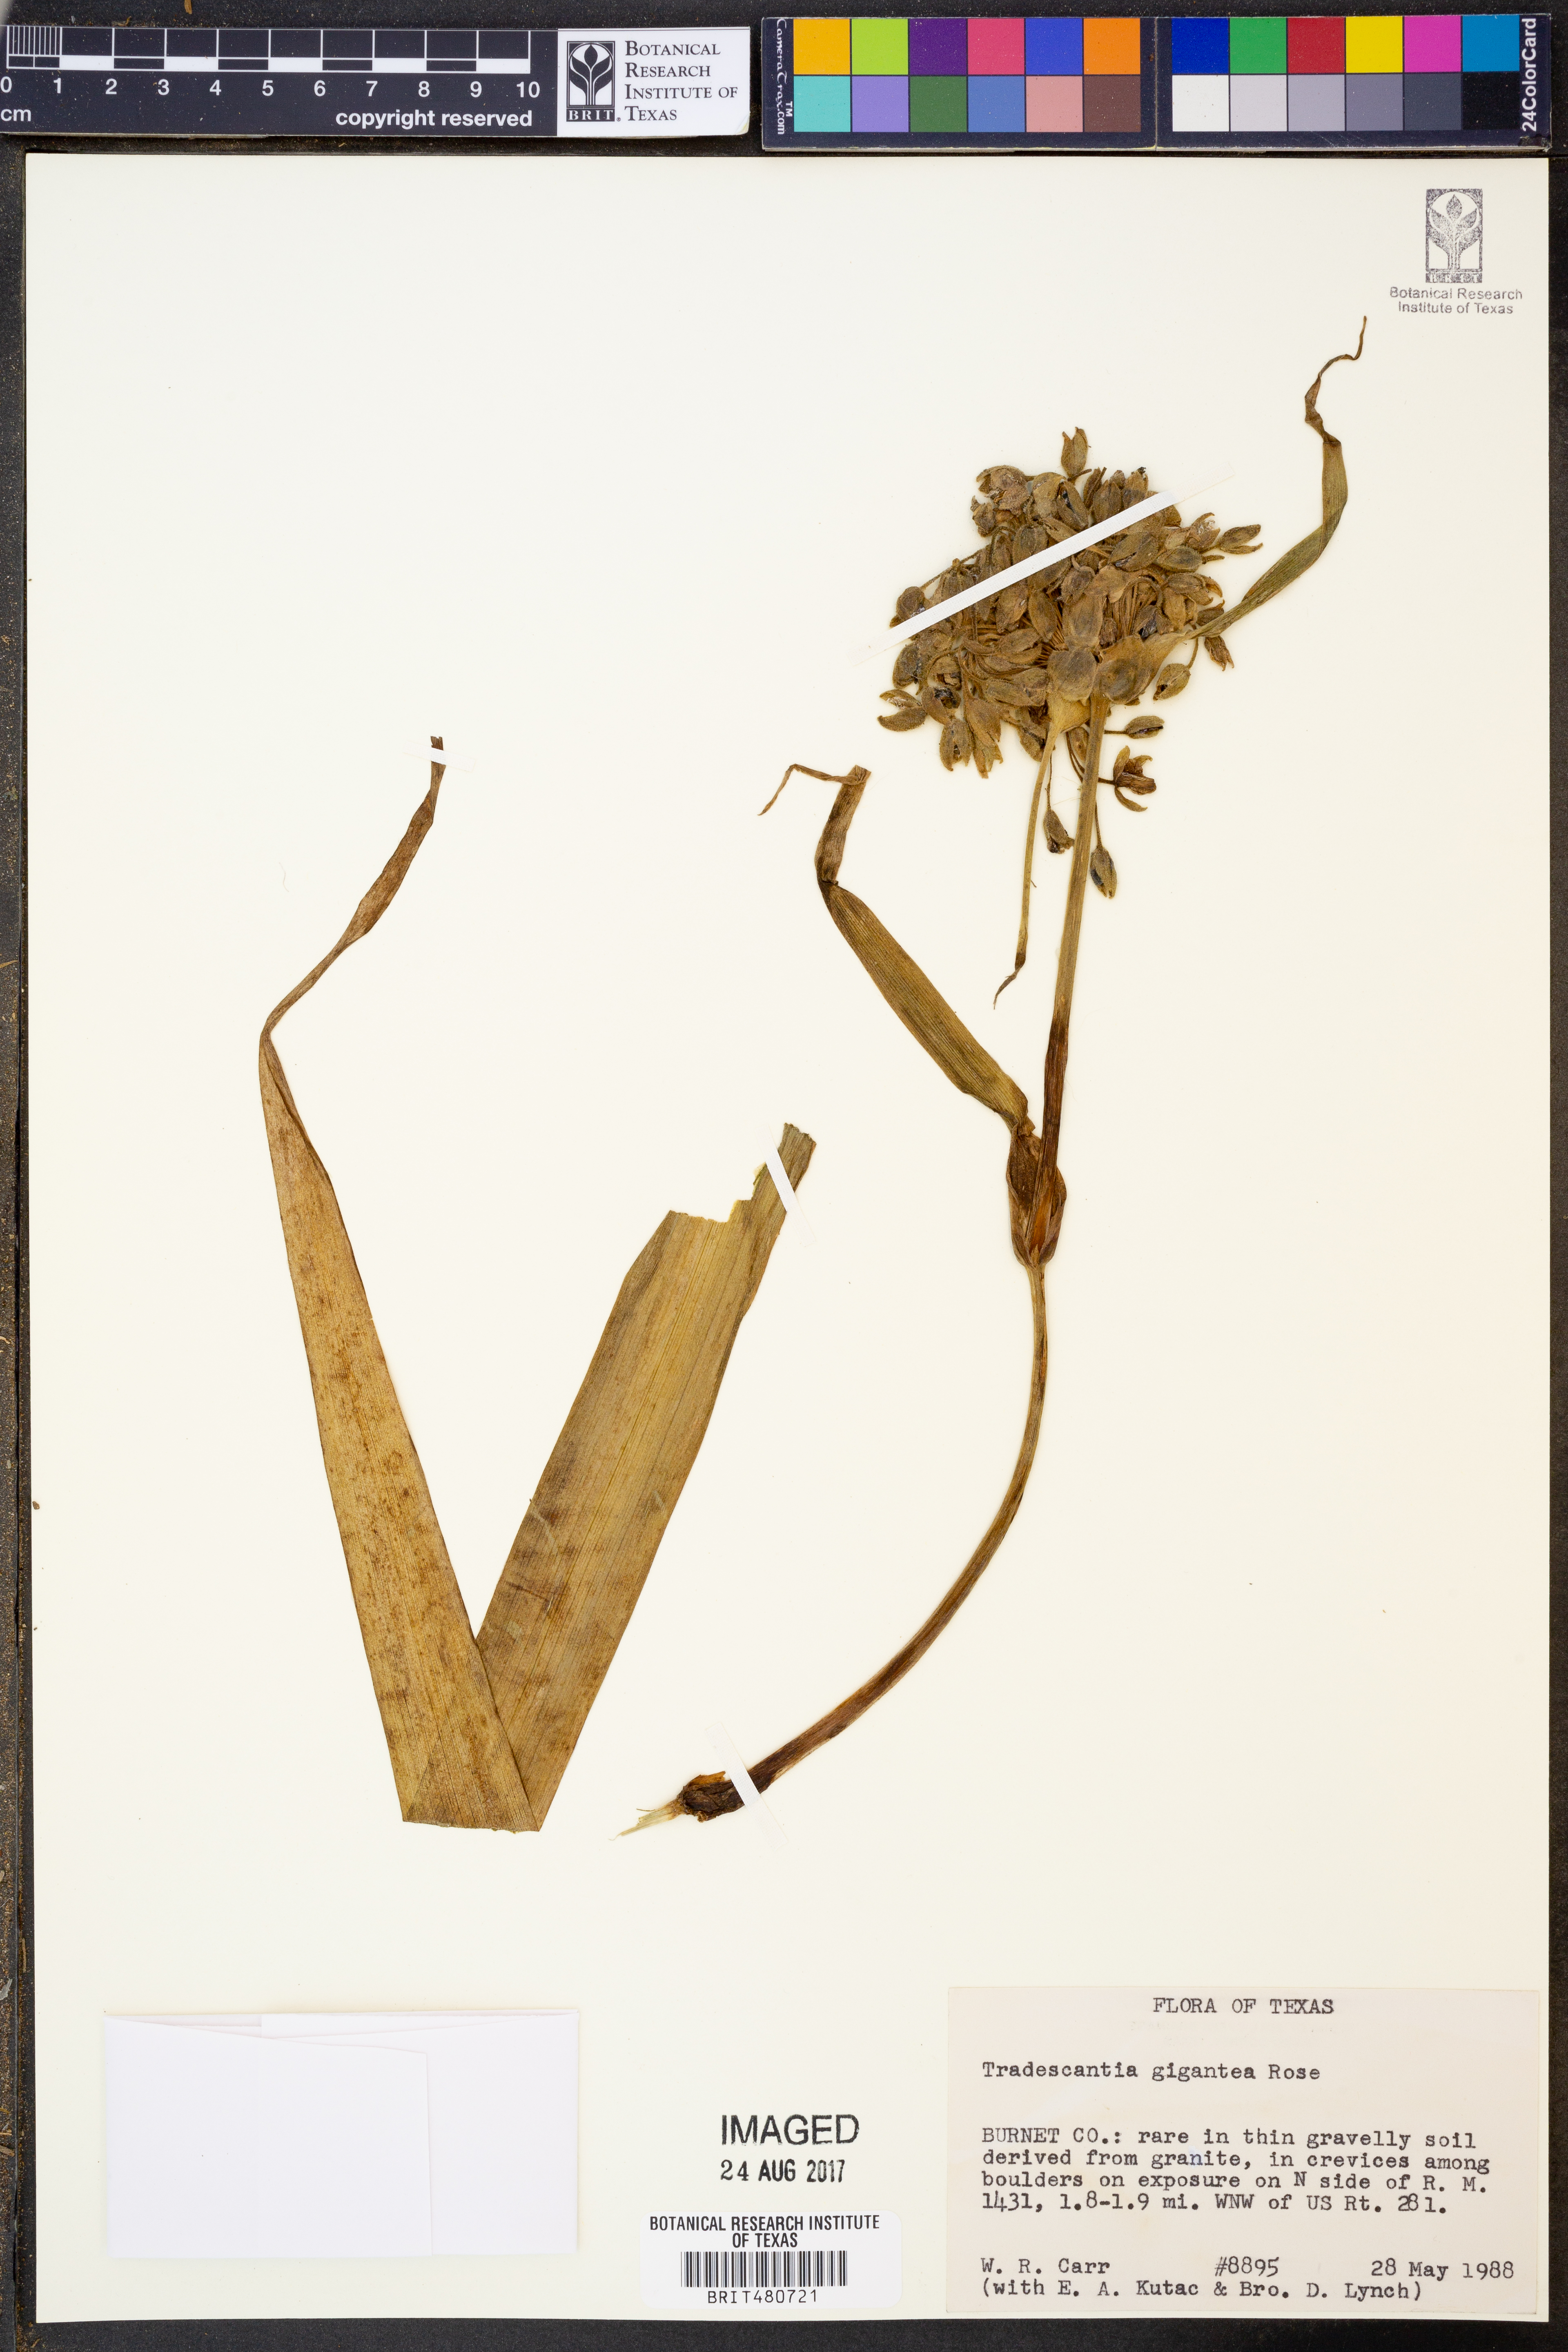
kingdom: Plantae
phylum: Tracheophyta
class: Liliopsida
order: Commelinales
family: Commelinaceae
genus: Tradescantia
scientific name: Tradescantia gigantea
